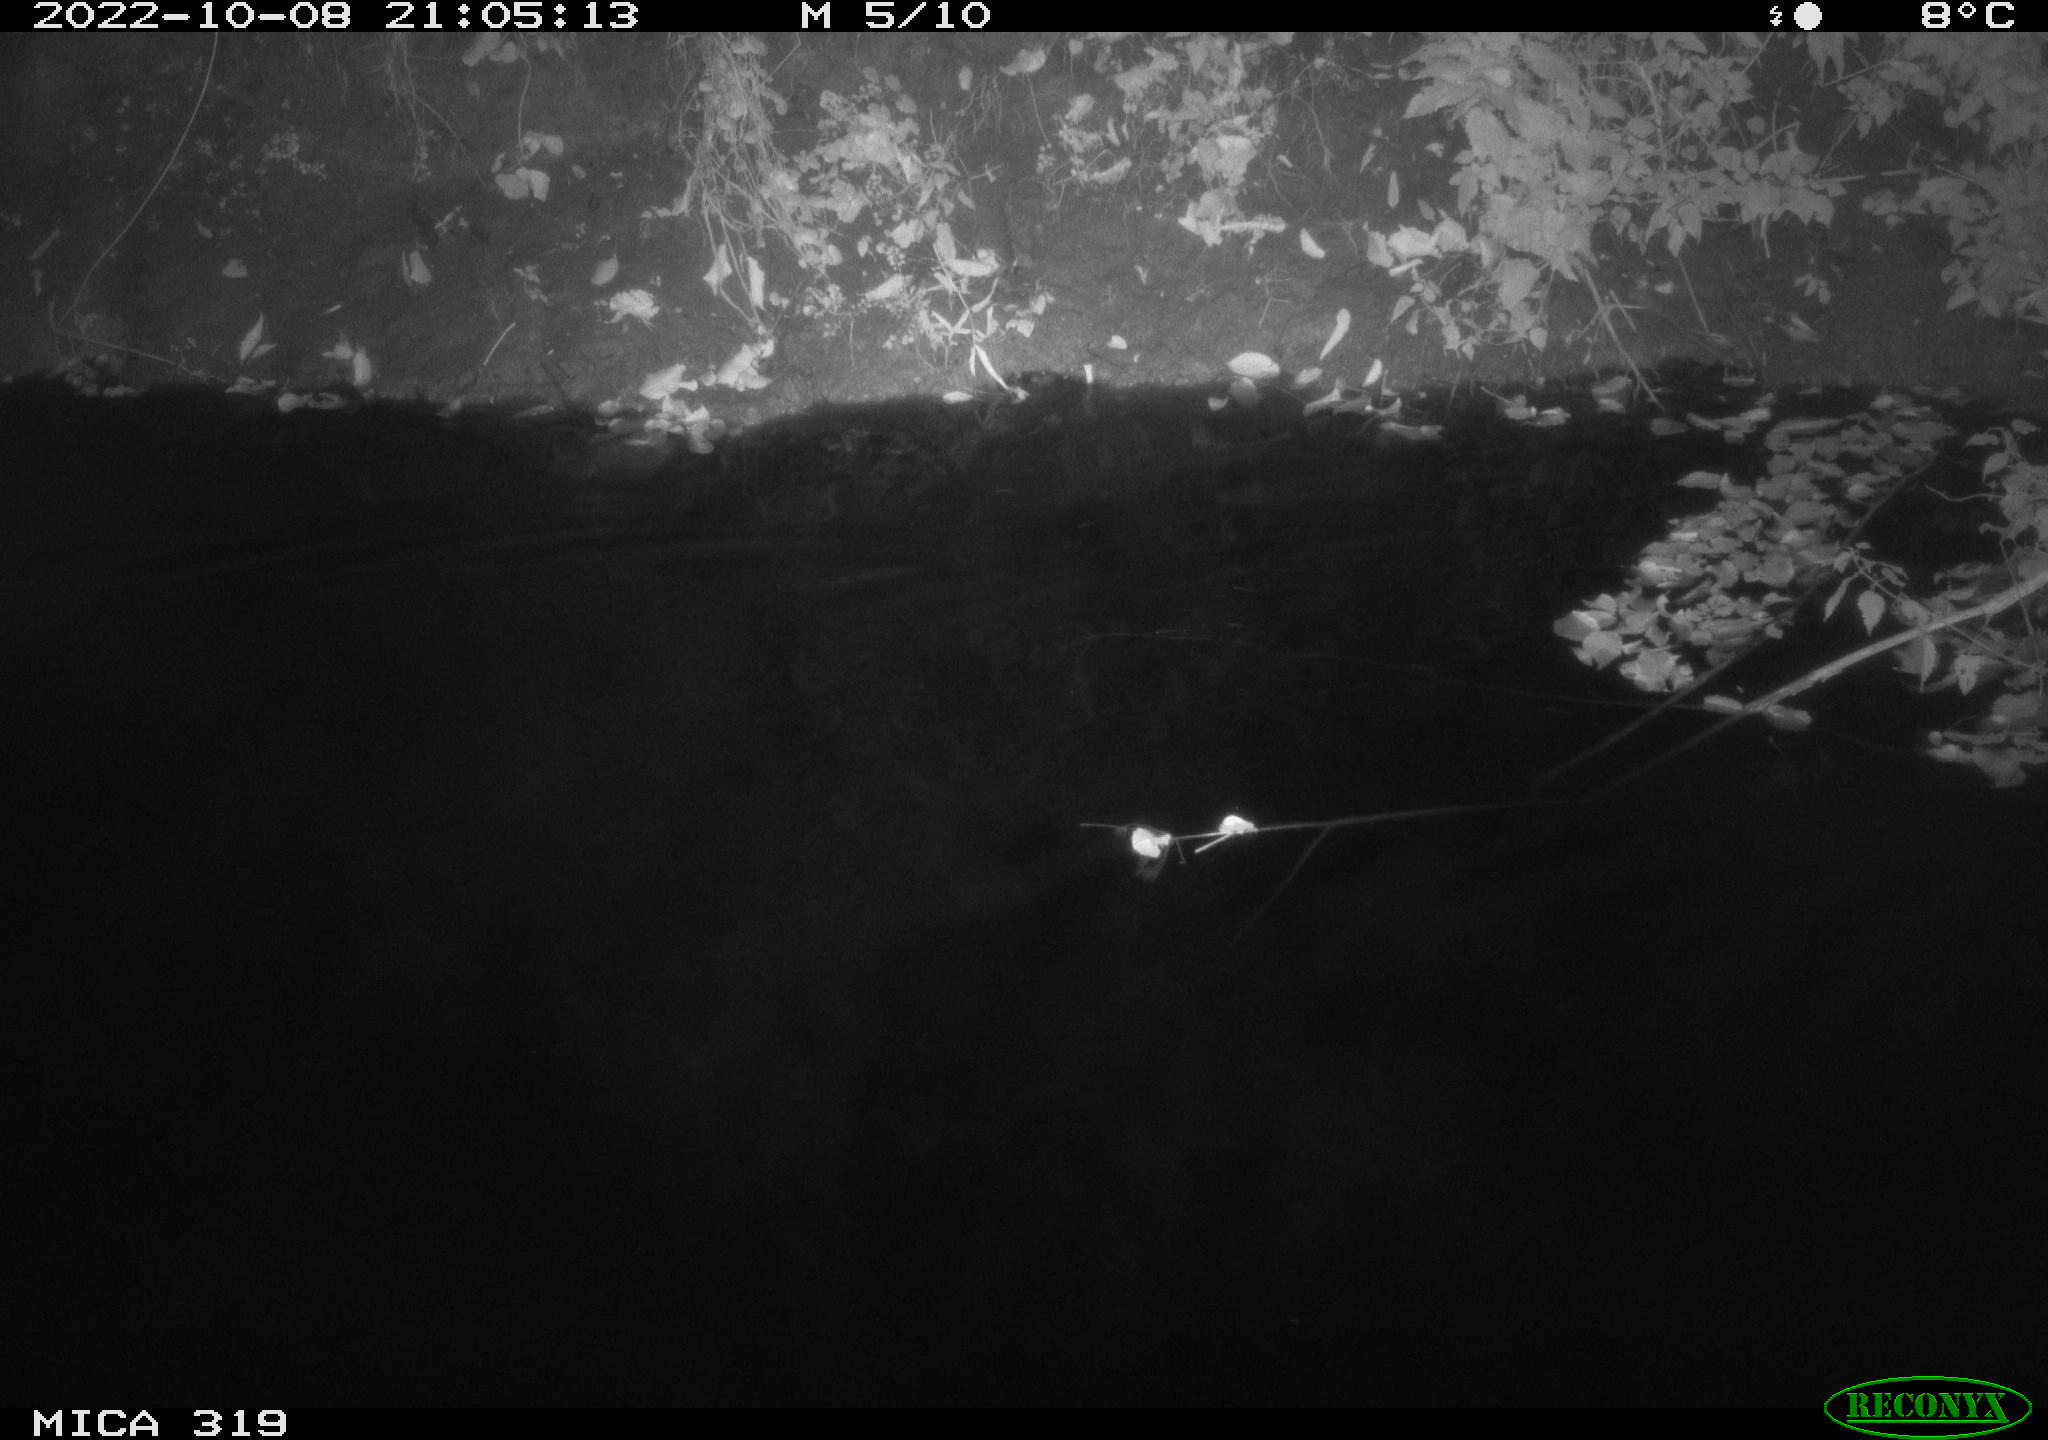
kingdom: Animalia
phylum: Chordata
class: Aves
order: Anseriformes
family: Anatidae
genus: Anas
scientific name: Anas
